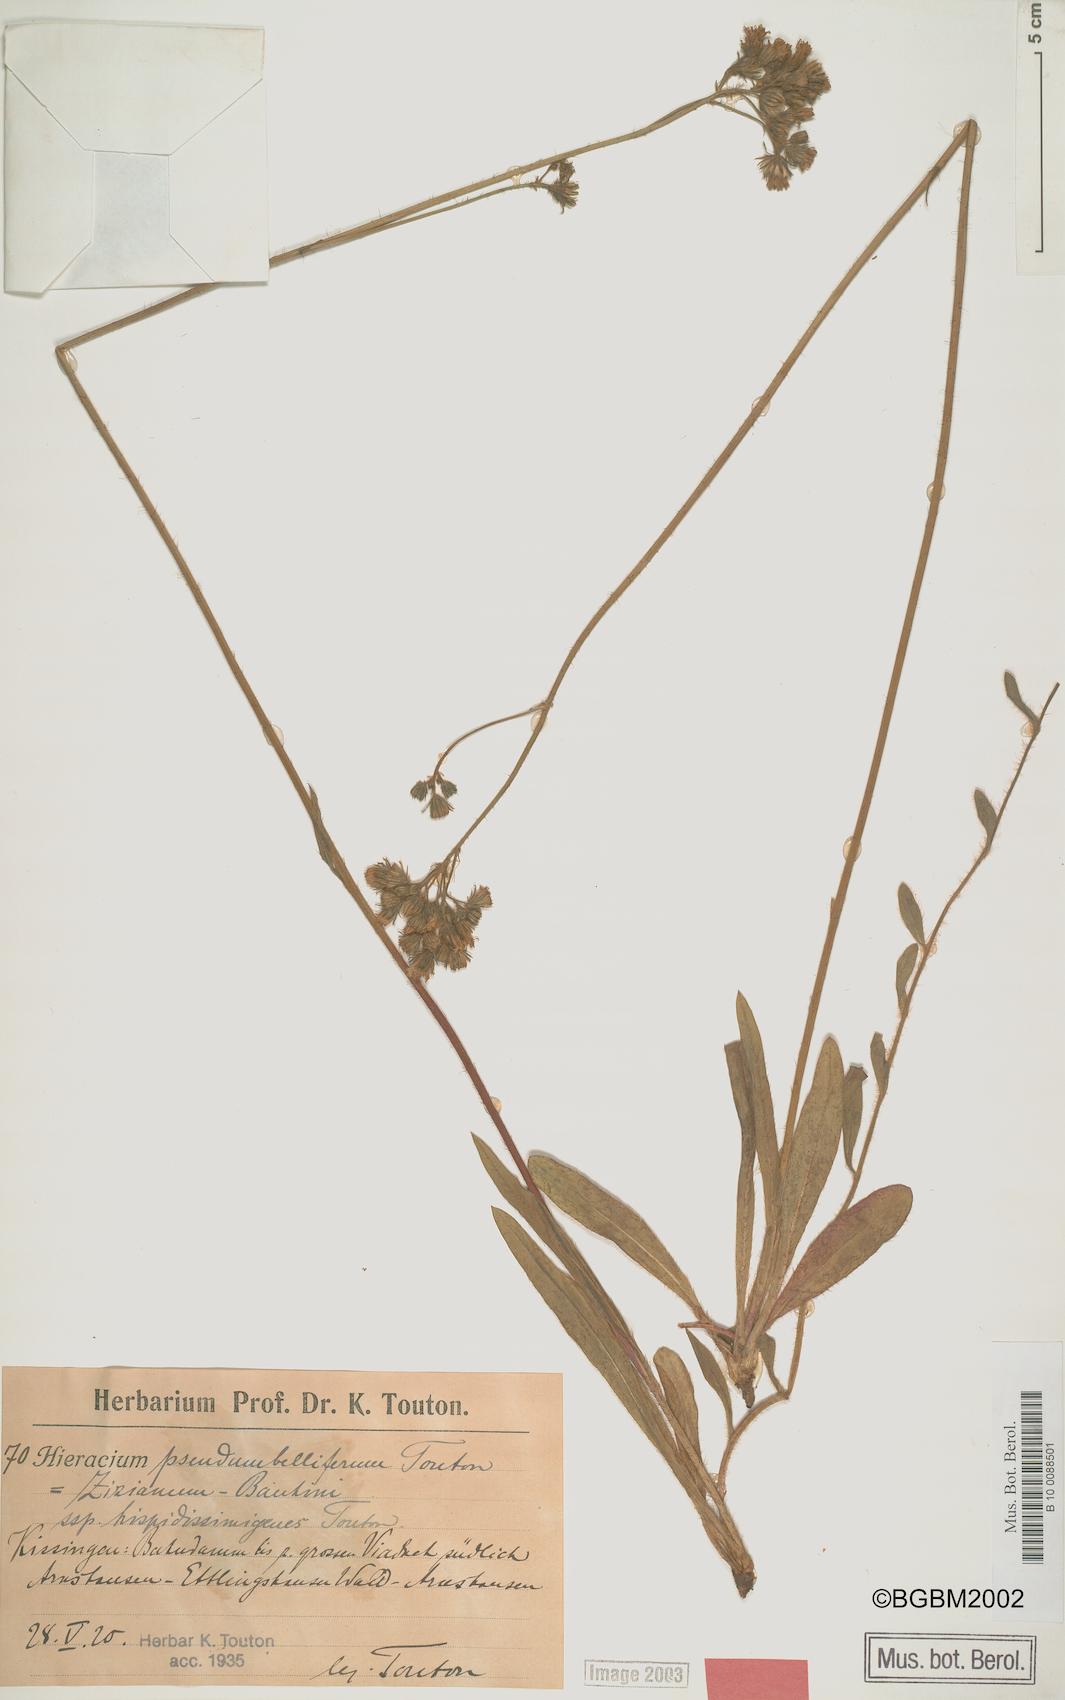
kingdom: Plantae
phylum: Tracheophyta
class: Magnoliopsida
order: Asterales
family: Asteraceae
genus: Pilosella
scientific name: Pilosella bauhini
